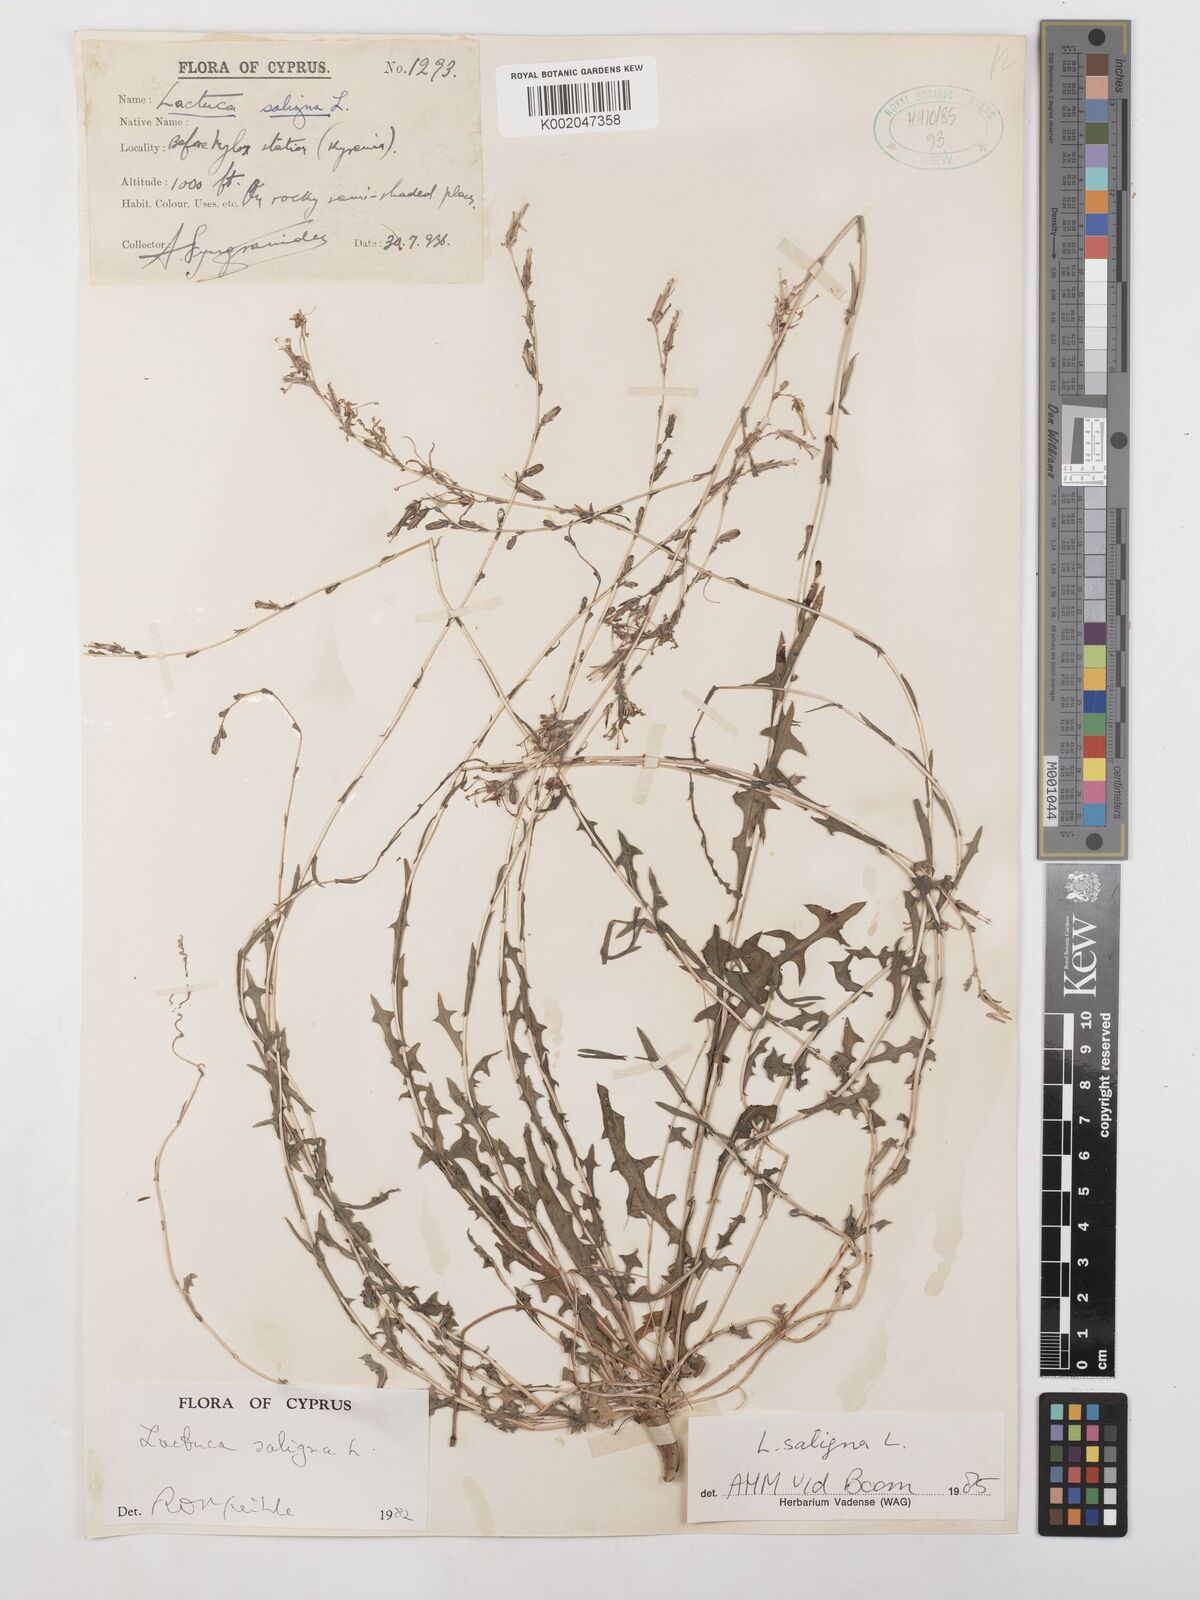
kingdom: Plantae
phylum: Tracheophyta
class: Magnoliopsida
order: Asterales
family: Asteraceae
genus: Lactuca
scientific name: Lactuca saligna
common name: Wild lettuce
